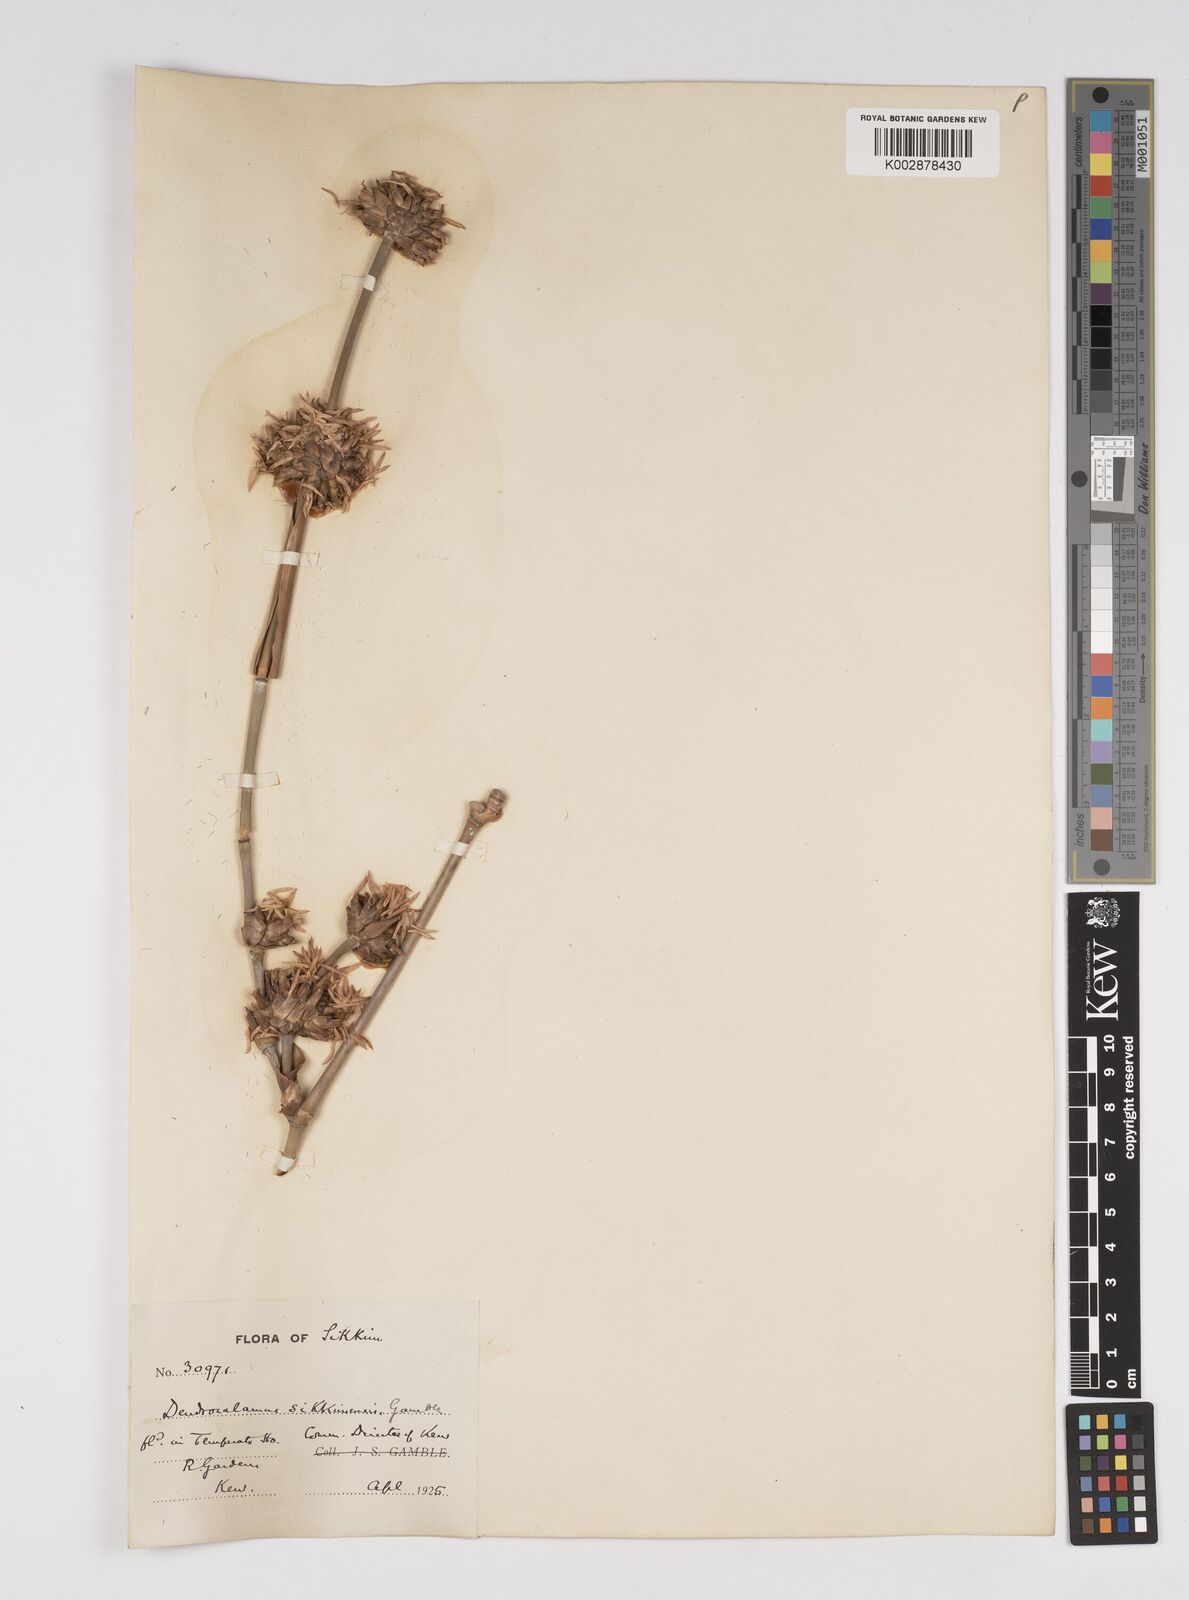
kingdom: Plantae
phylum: Tracheophyta
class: Liliopsida
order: Poales
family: Poaceae
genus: Dendrocalamus
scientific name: Dendrocalamus sikkimensis
